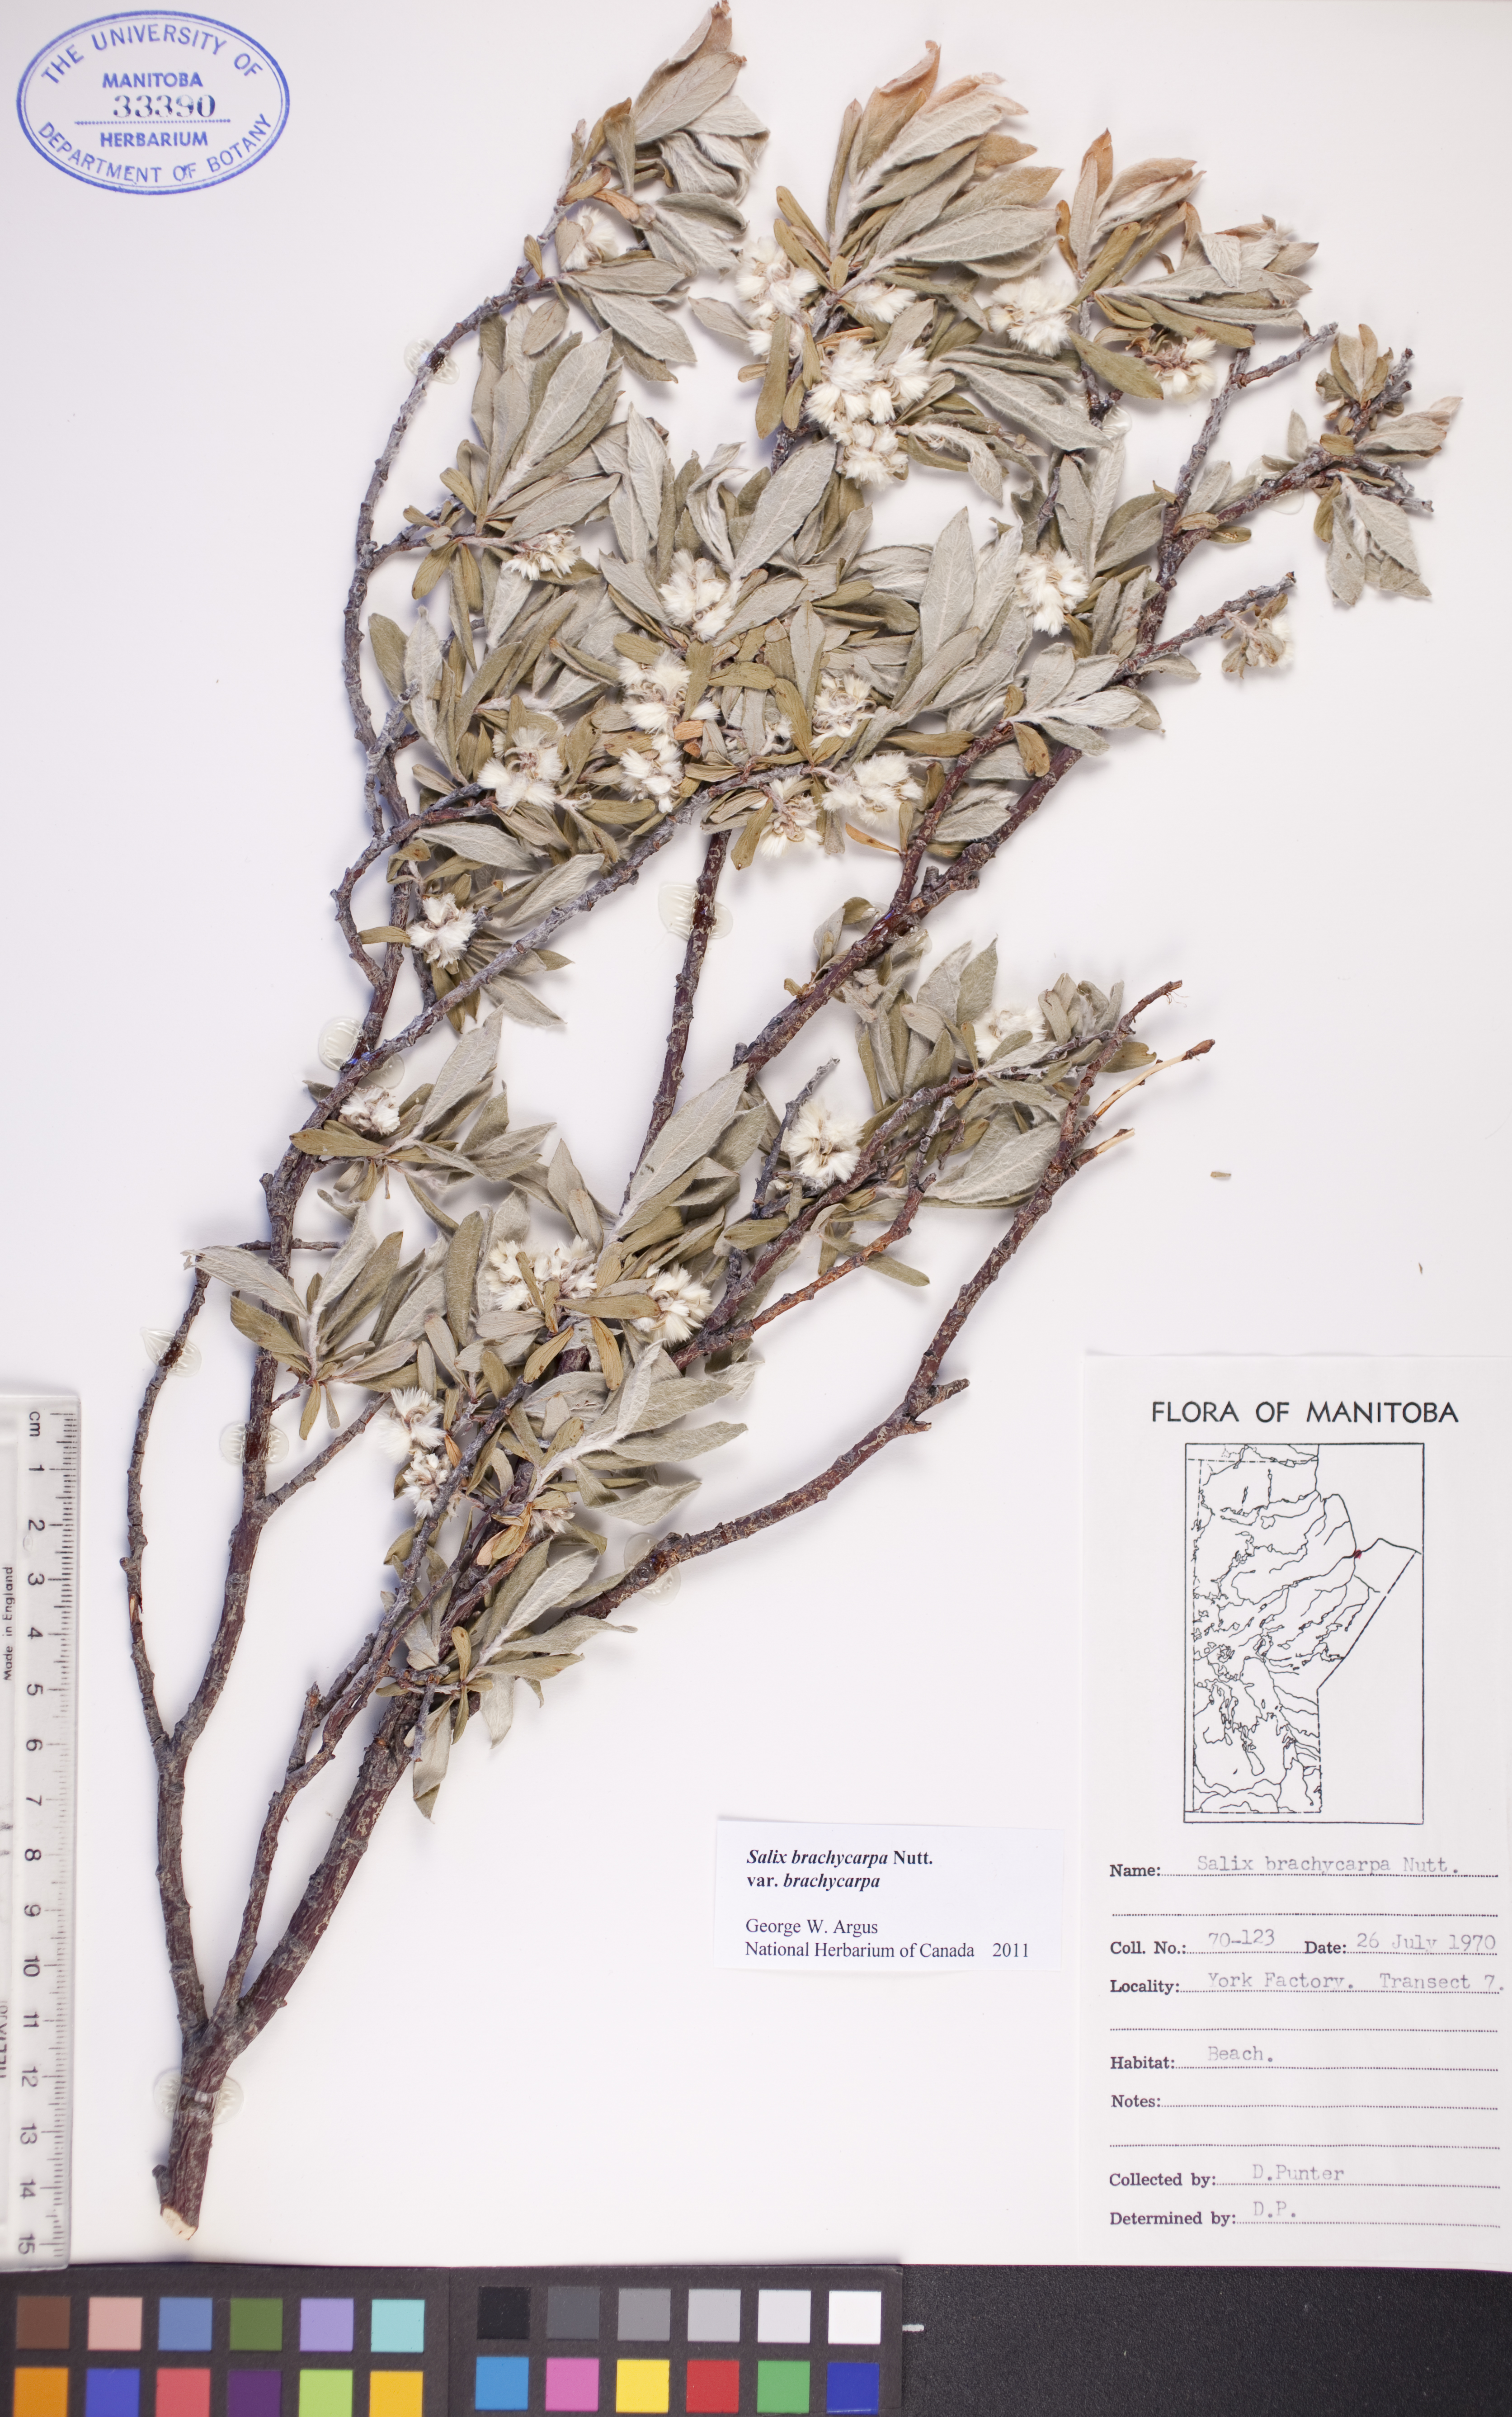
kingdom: Plantae
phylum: Tracheophyta
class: Magnoliopsida
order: Malpighiales
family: Salicaceae
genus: Salix
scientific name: Salix brachycarpa
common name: Barren-ground willow
